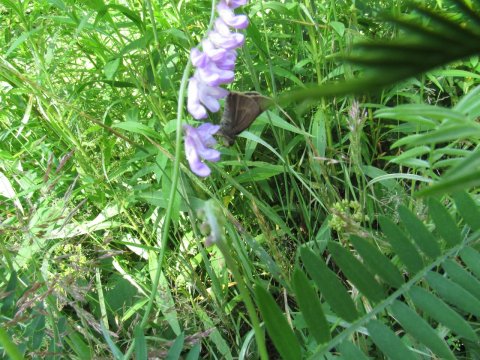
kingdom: Animalia
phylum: Arthropoda
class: Insecta
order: Lepidoptera
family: Hesperiidae
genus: Polites
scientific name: Polites egeremet
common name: Northern Broken-Dash
